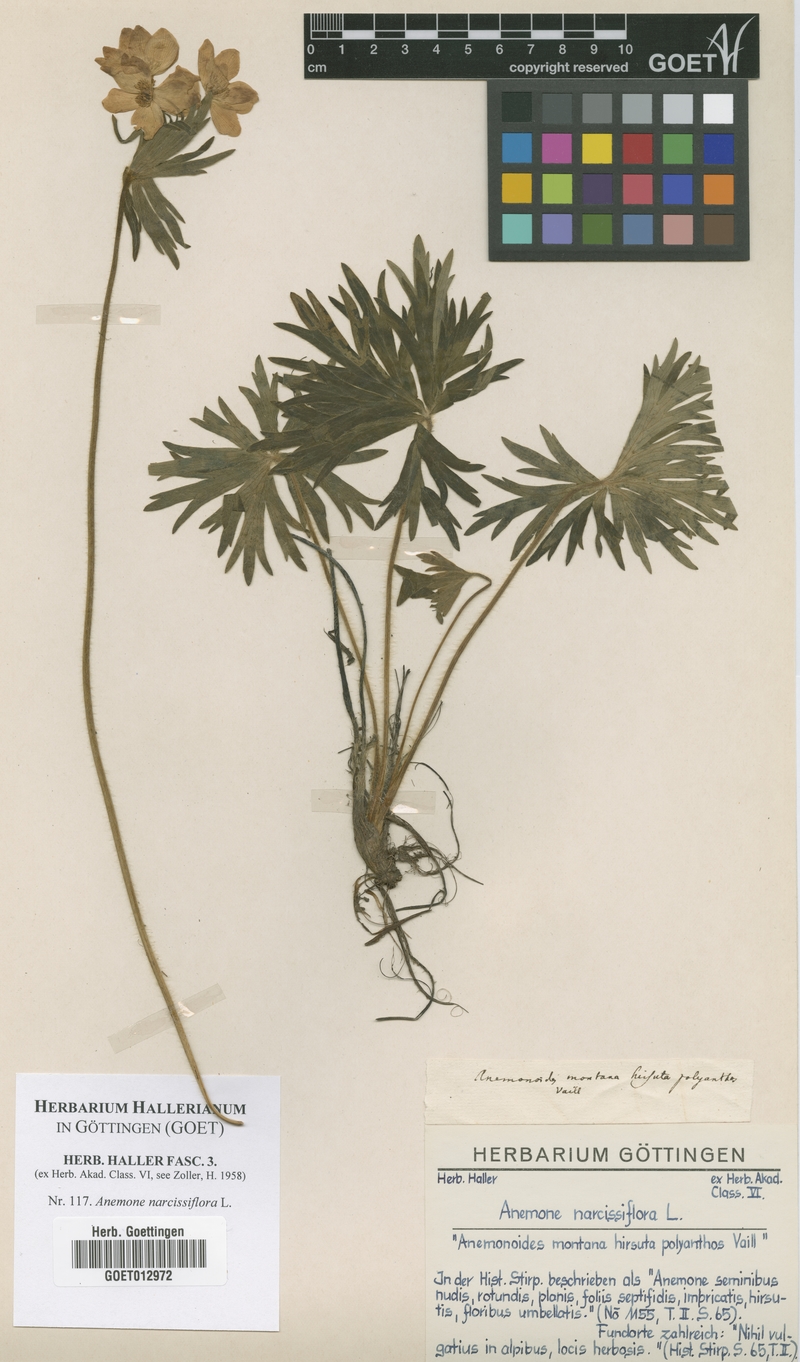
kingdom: Plantae
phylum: Tracheophyta
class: Magnoliopsida
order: Ranunculales
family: Ranunculaceae
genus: Anemonastrum
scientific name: Anemonastrum narcissiflorum
